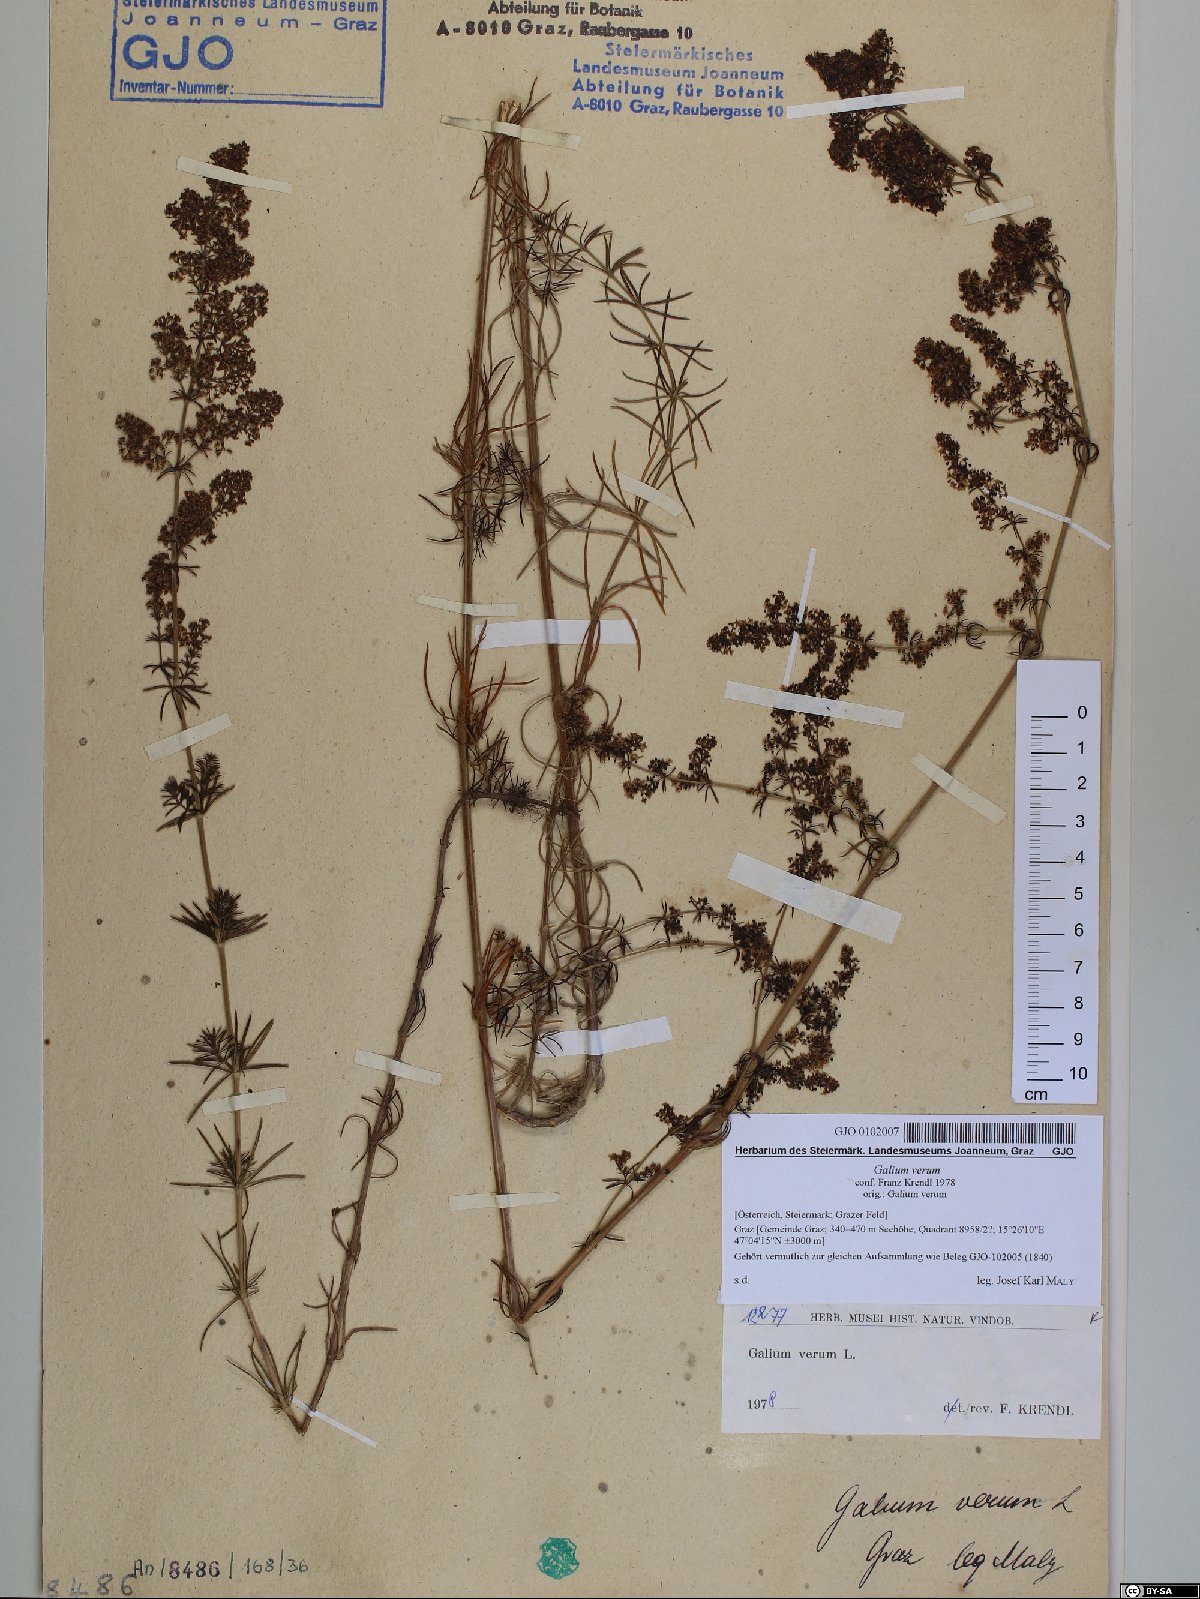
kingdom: Plantae
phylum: Tracheophyta
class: Magnoliopsida
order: Gentianales
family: Rubiaceae
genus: Galium
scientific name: Galium verum
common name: Lady's bedstraw
